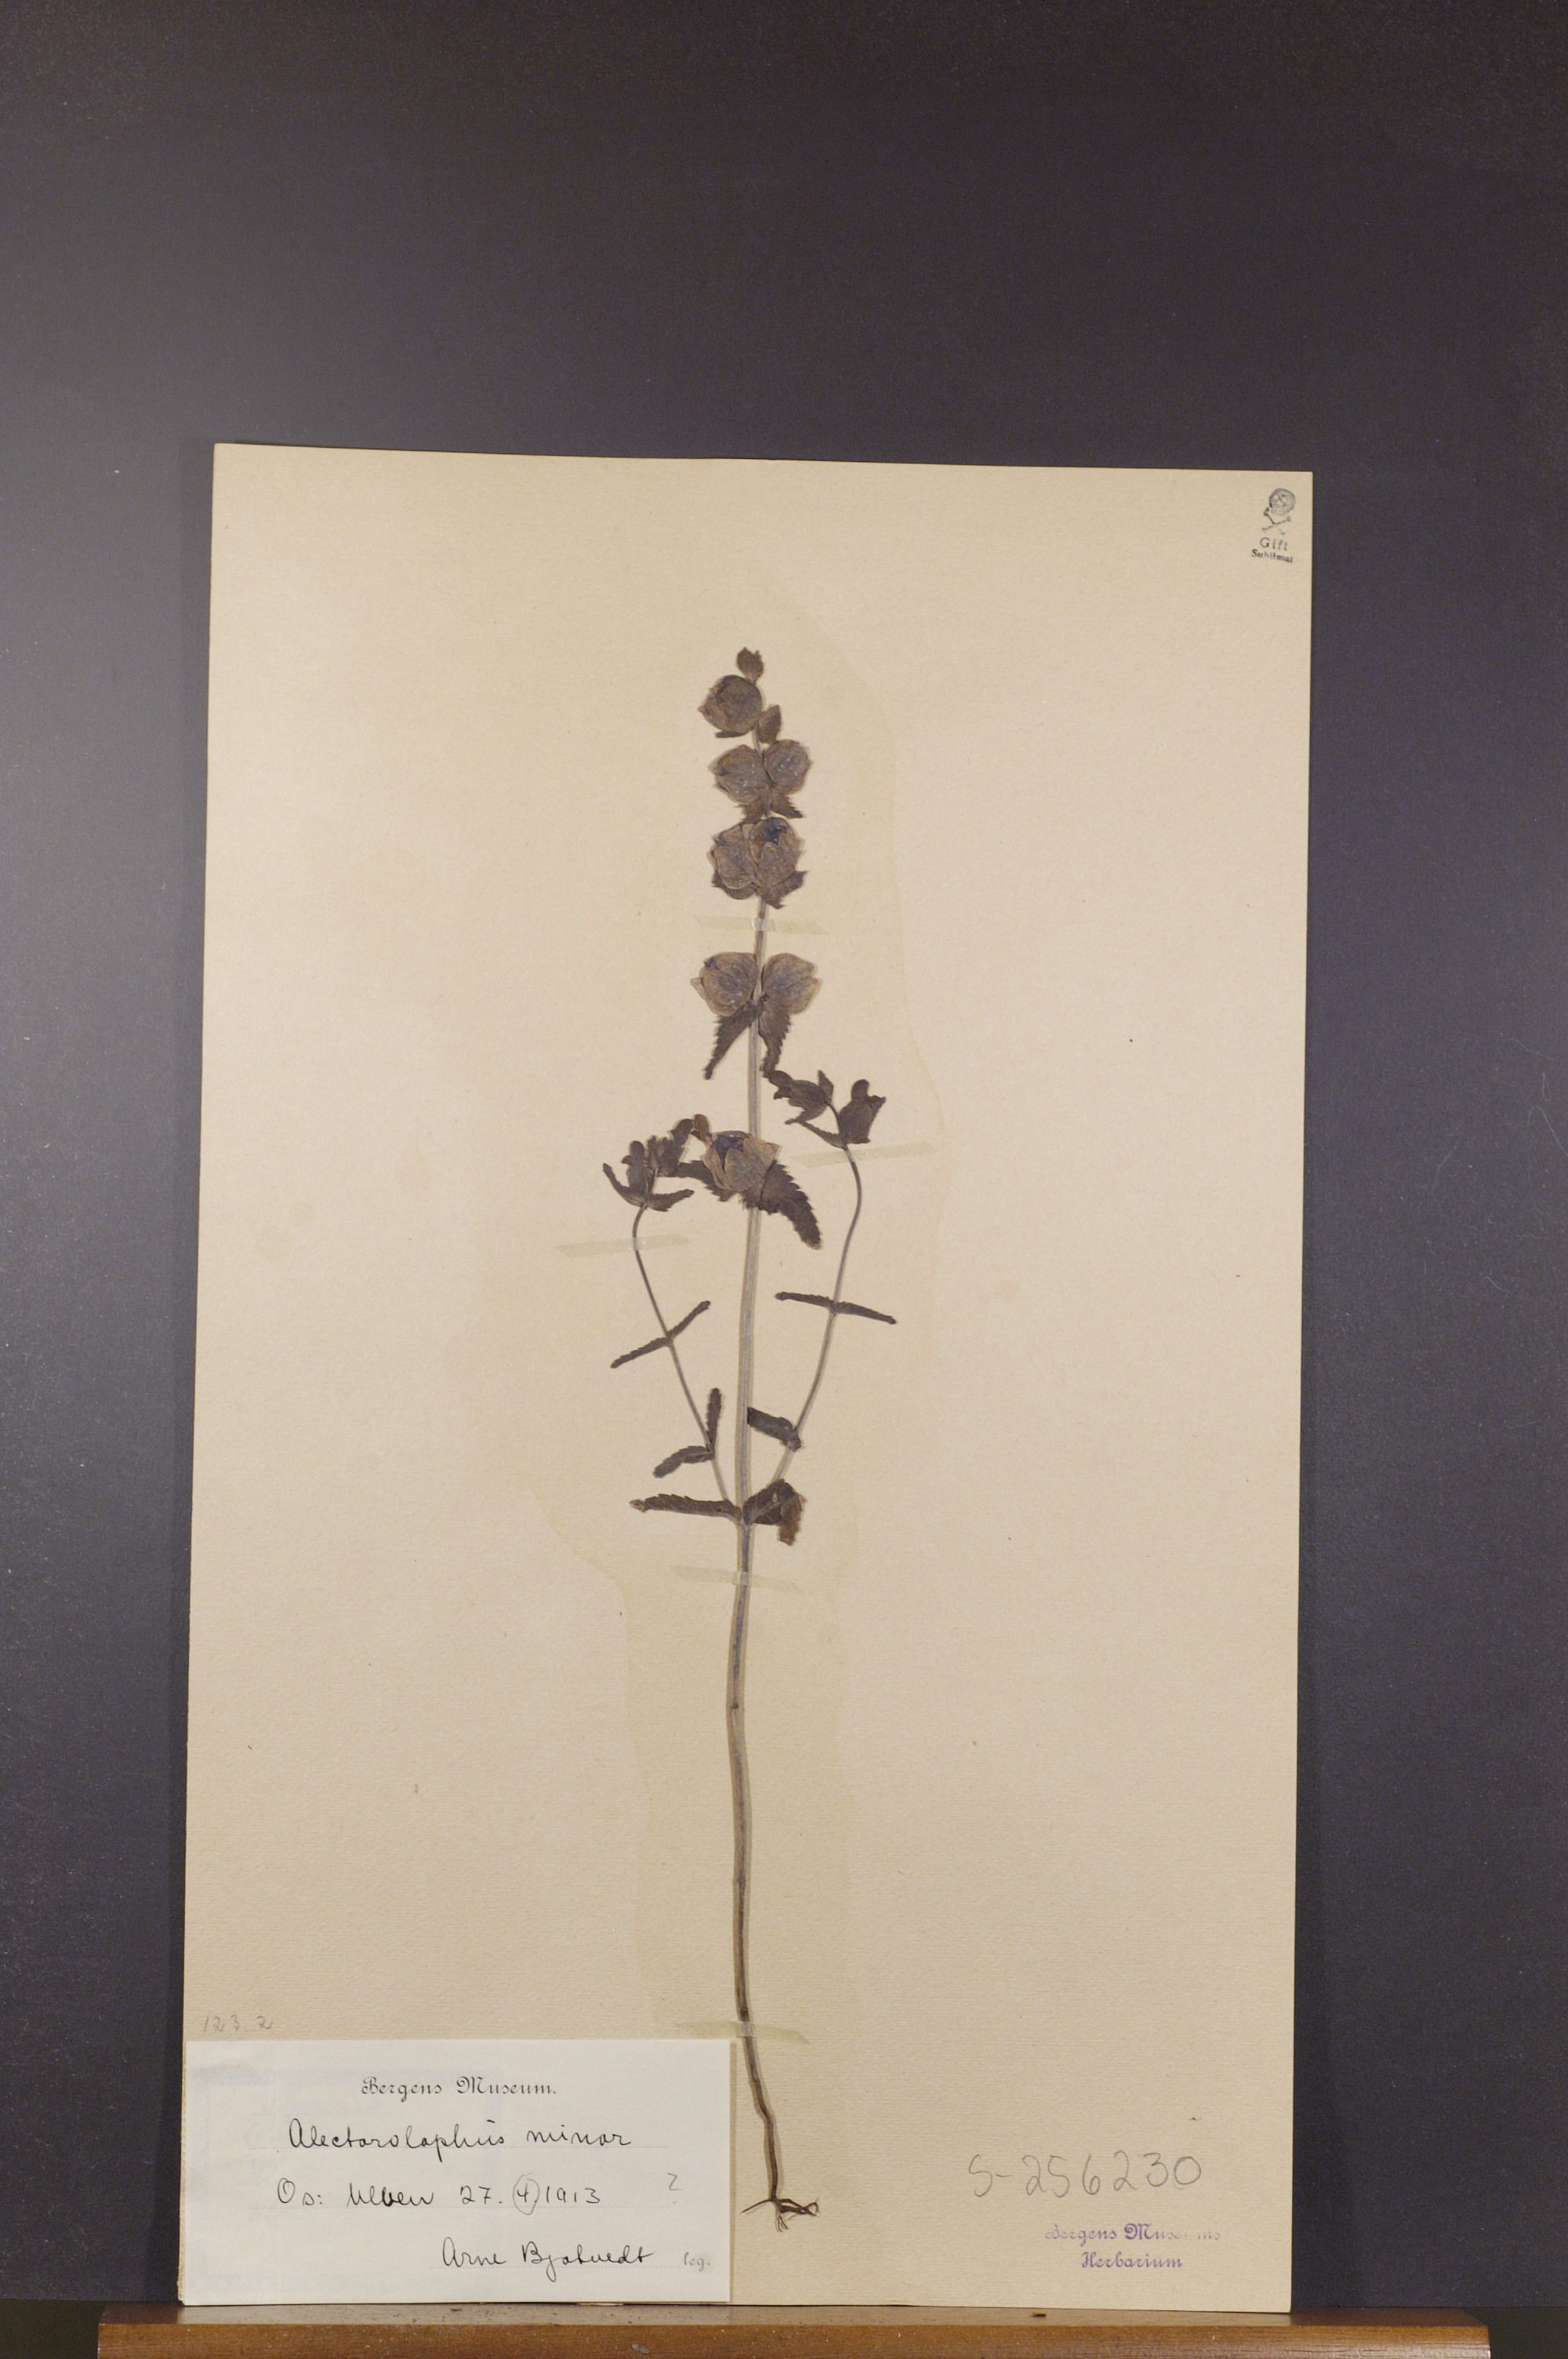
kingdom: Plantae
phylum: Tracheophyta
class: Magnoliopsida
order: Lamiales
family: Orobanchaceae
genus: Rhinanthus
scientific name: Rhinanthus minor
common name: Yellow-rattle
